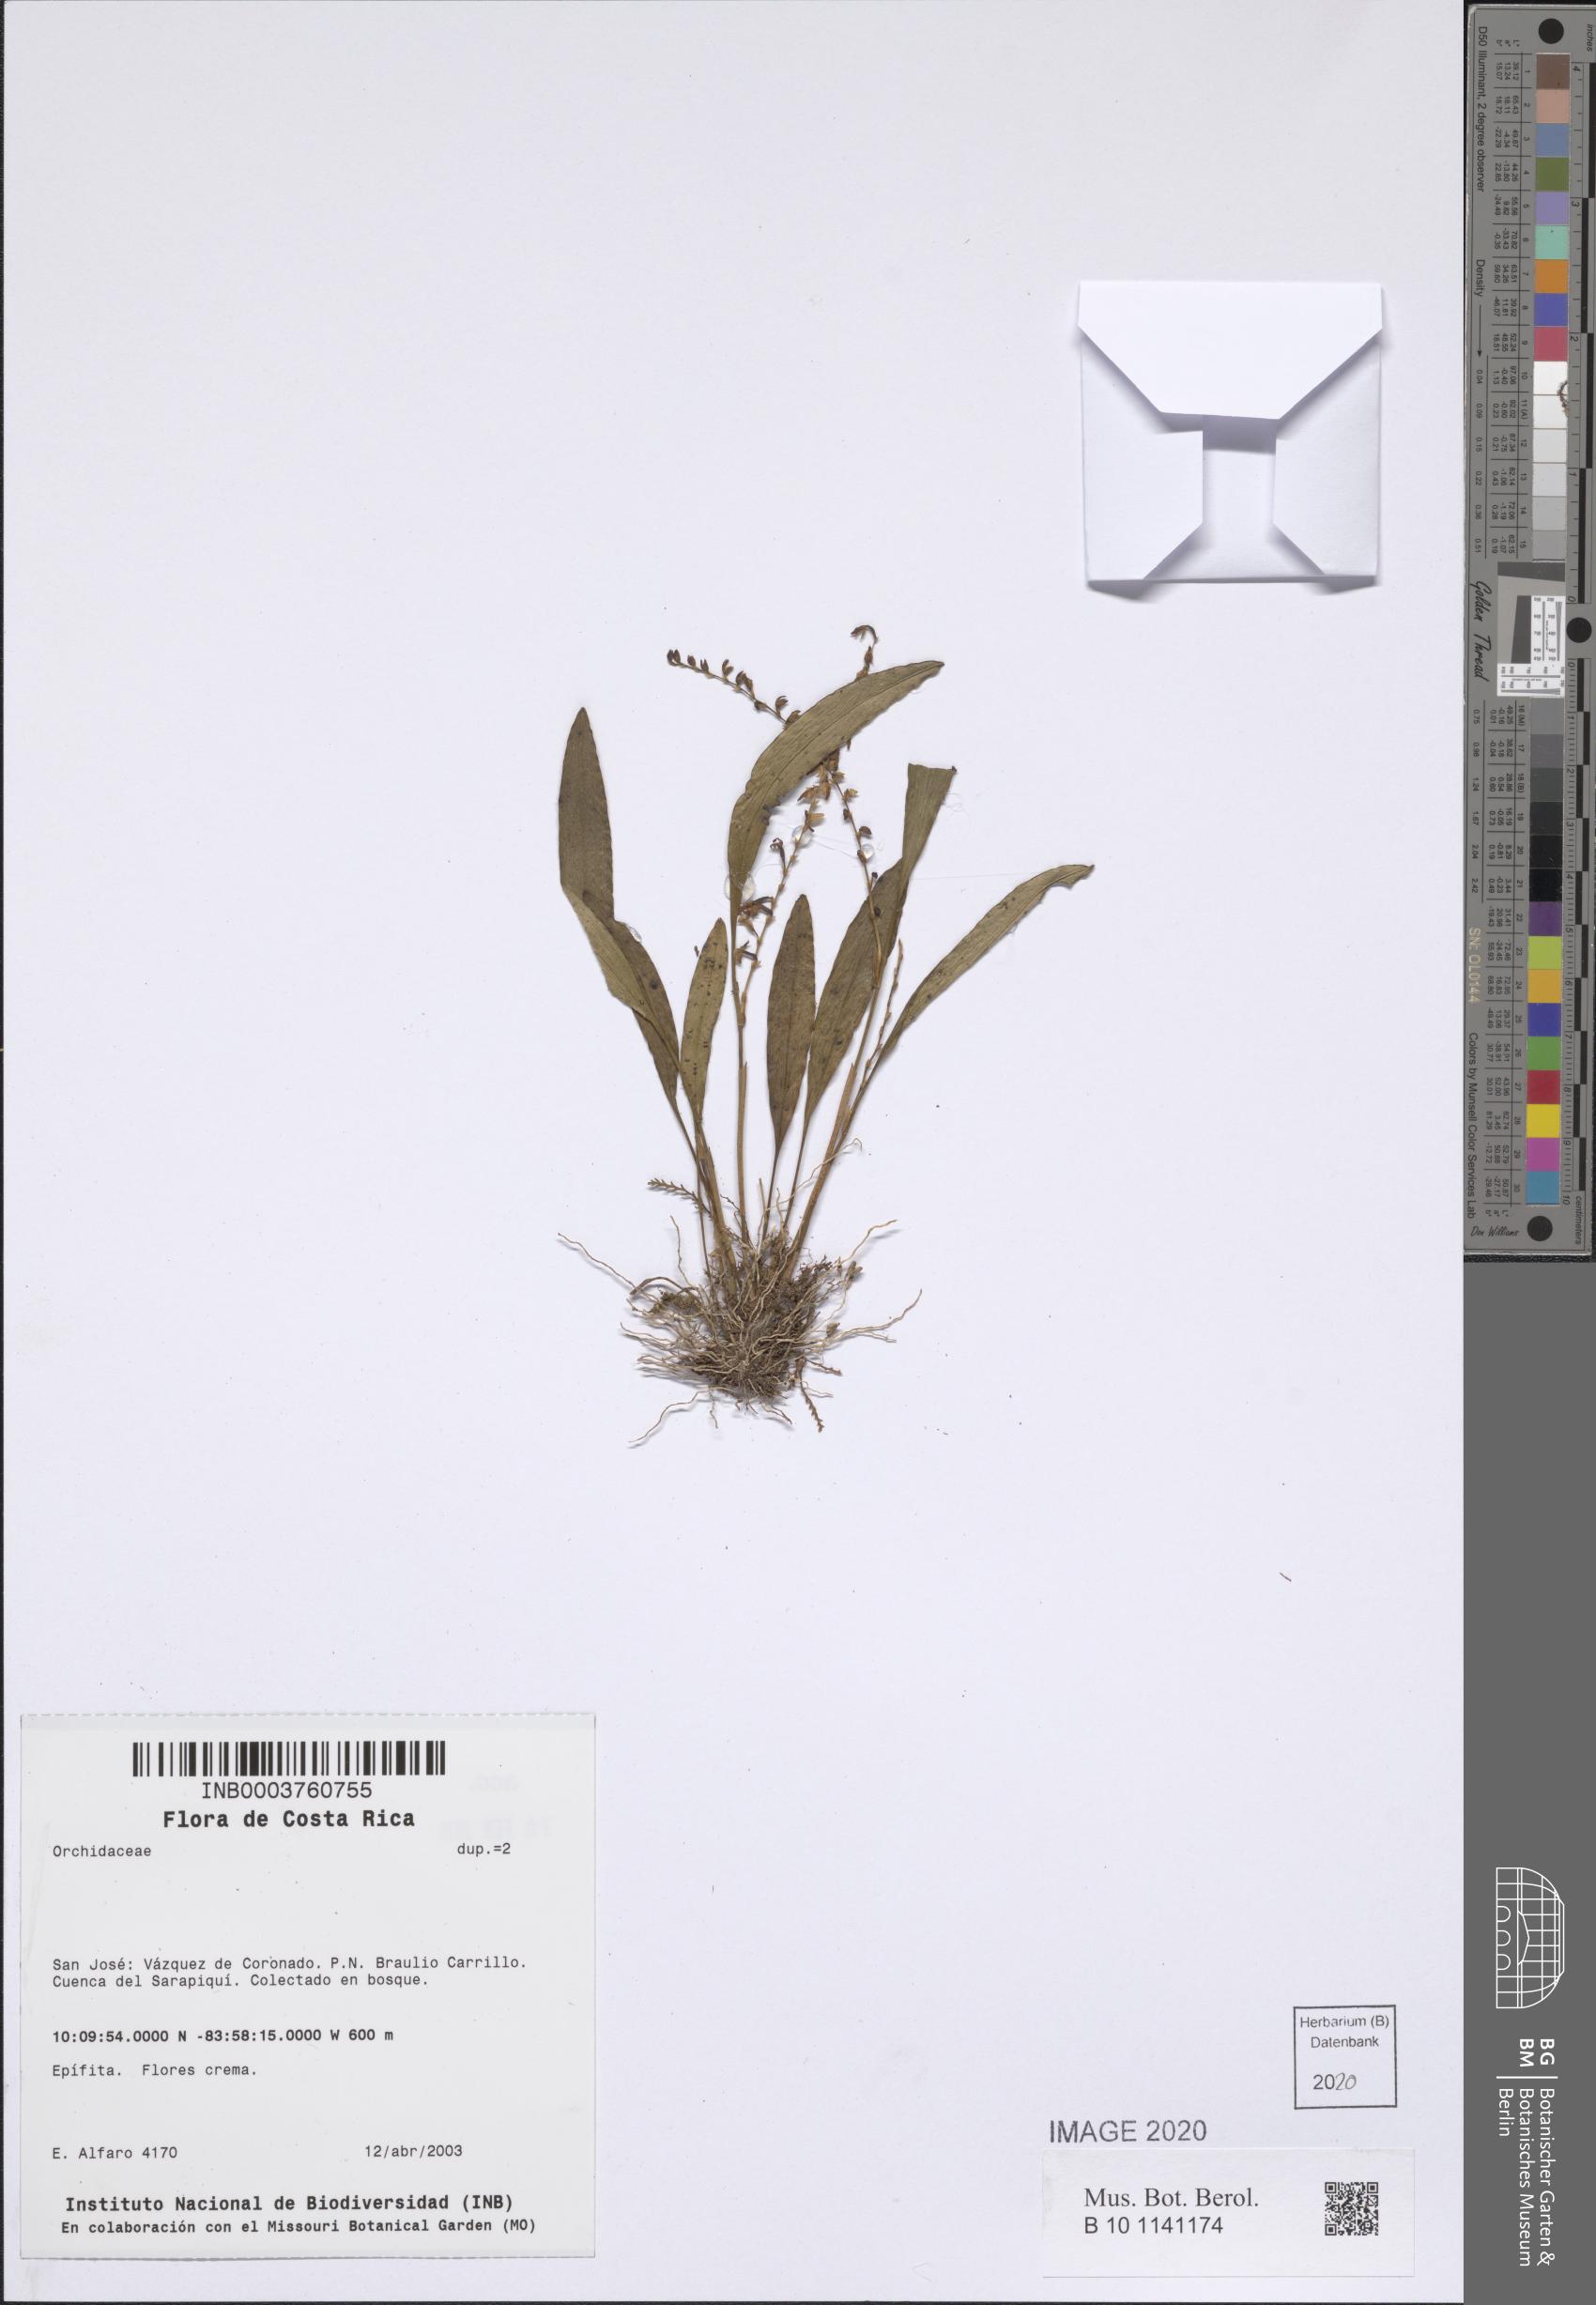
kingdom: Plantae
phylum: Tracheophyta
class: Liliopsida
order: Asparagales
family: Orchidaceae
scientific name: Orchidaceae
